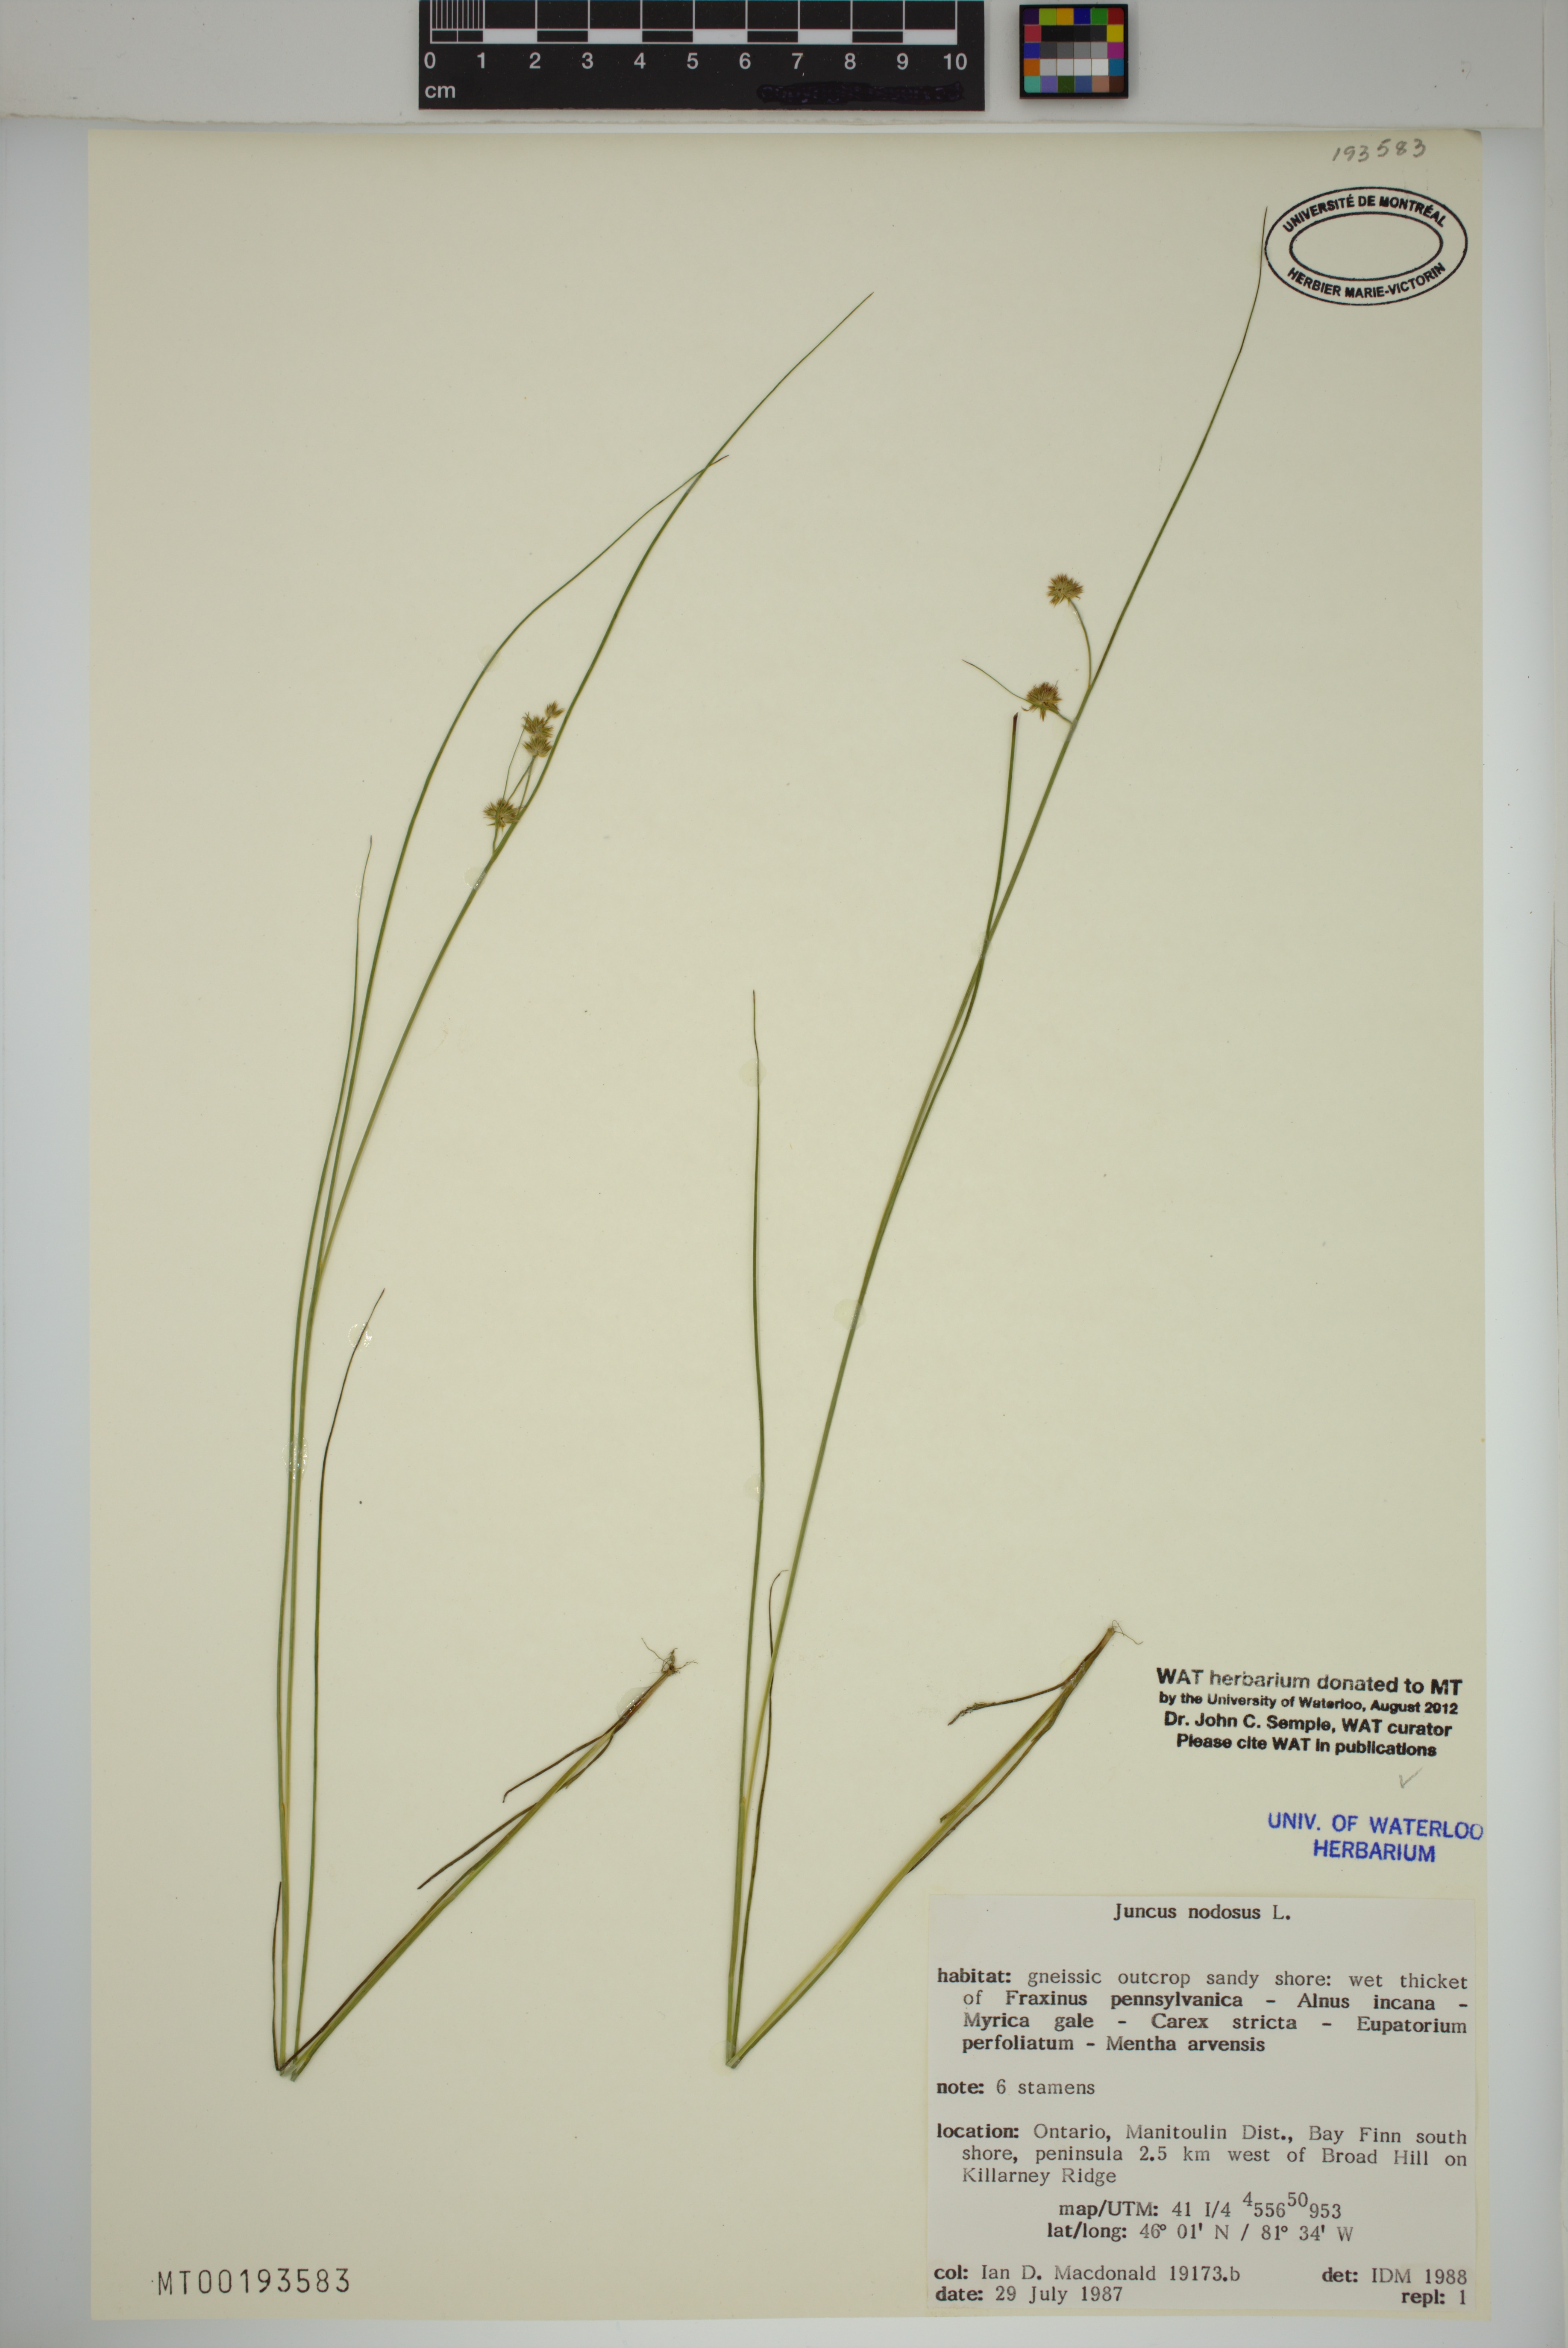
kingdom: Plantae
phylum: Tracheophyta
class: Liliopsida
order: Poales
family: Juncaceae
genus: Juncus
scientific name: Juncus nodosus
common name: Knotted rush
